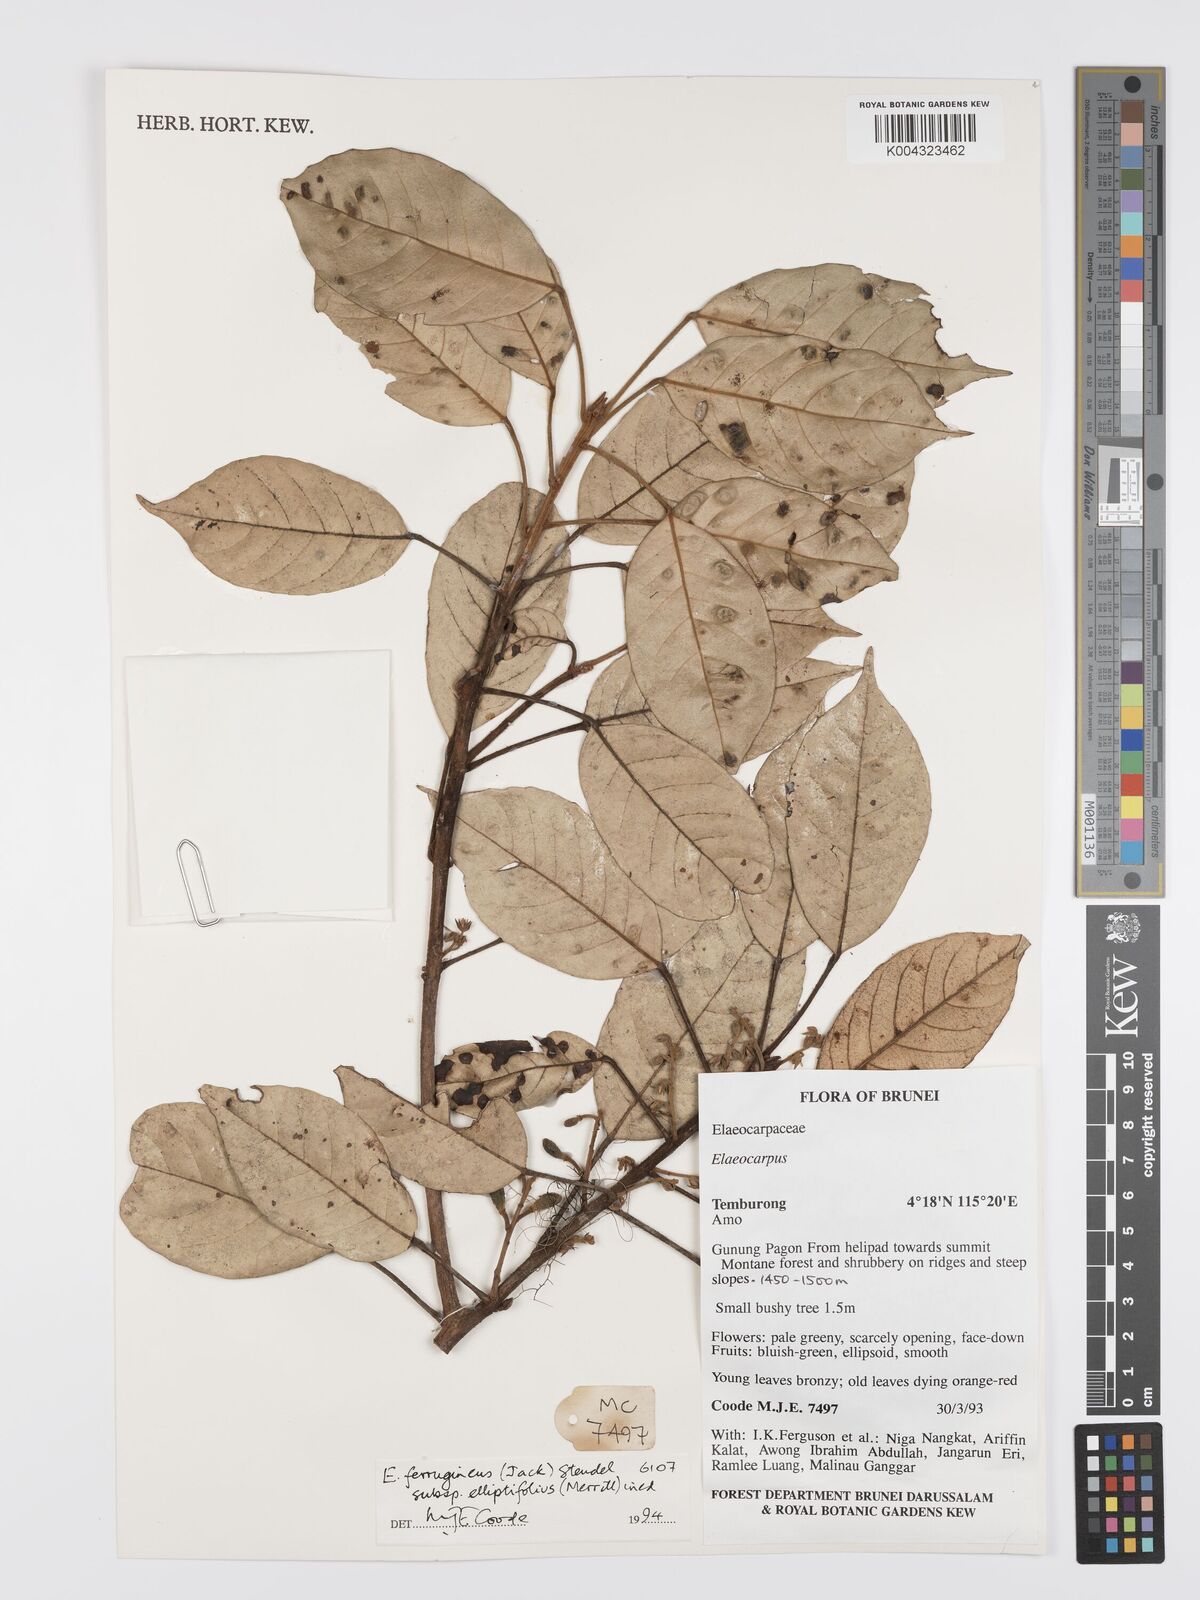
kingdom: Plantae
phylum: Tracheophyta
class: Magnoliopsida
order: Oxalidales
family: Elaeocarpaceae
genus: Elaeocarpus
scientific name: Elaeocarpus ferrugineus
